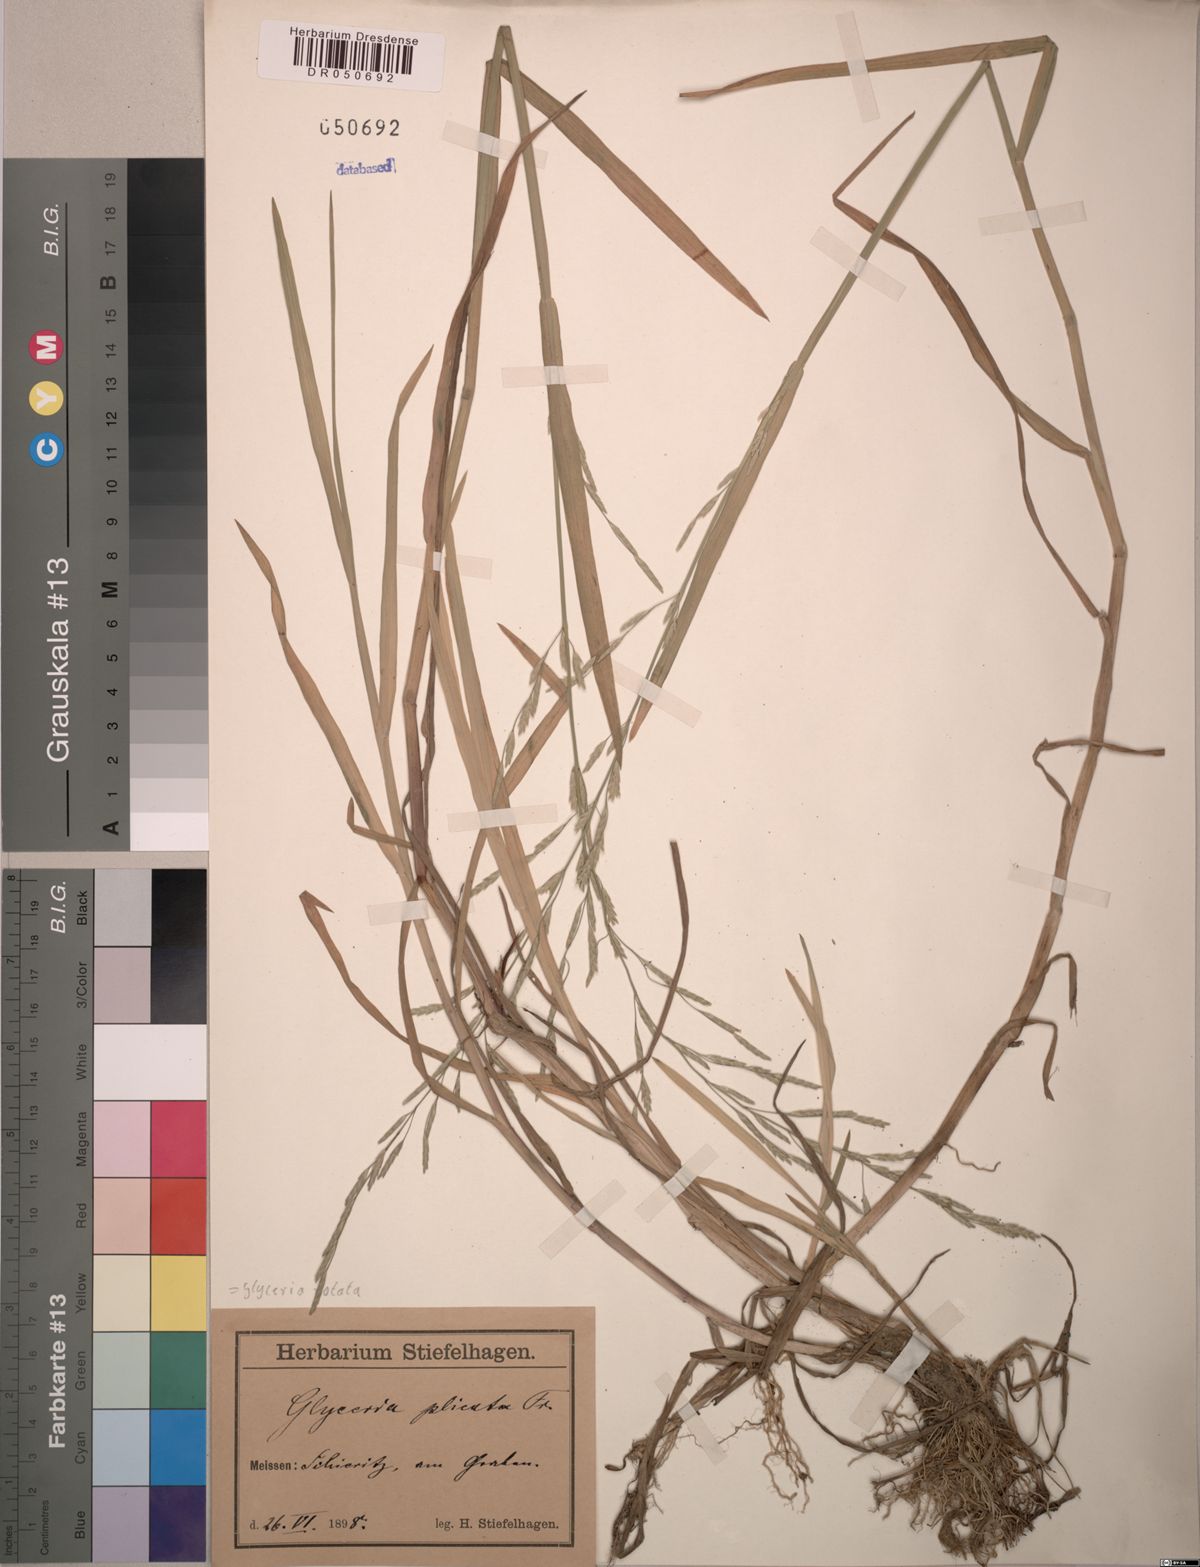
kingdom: Plantae
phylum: Tracheophyta
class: Liliopsida
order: Poales
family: Poaceae
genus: Glyceria
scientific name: Glyceria notata
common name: Plicate sweet-grass
